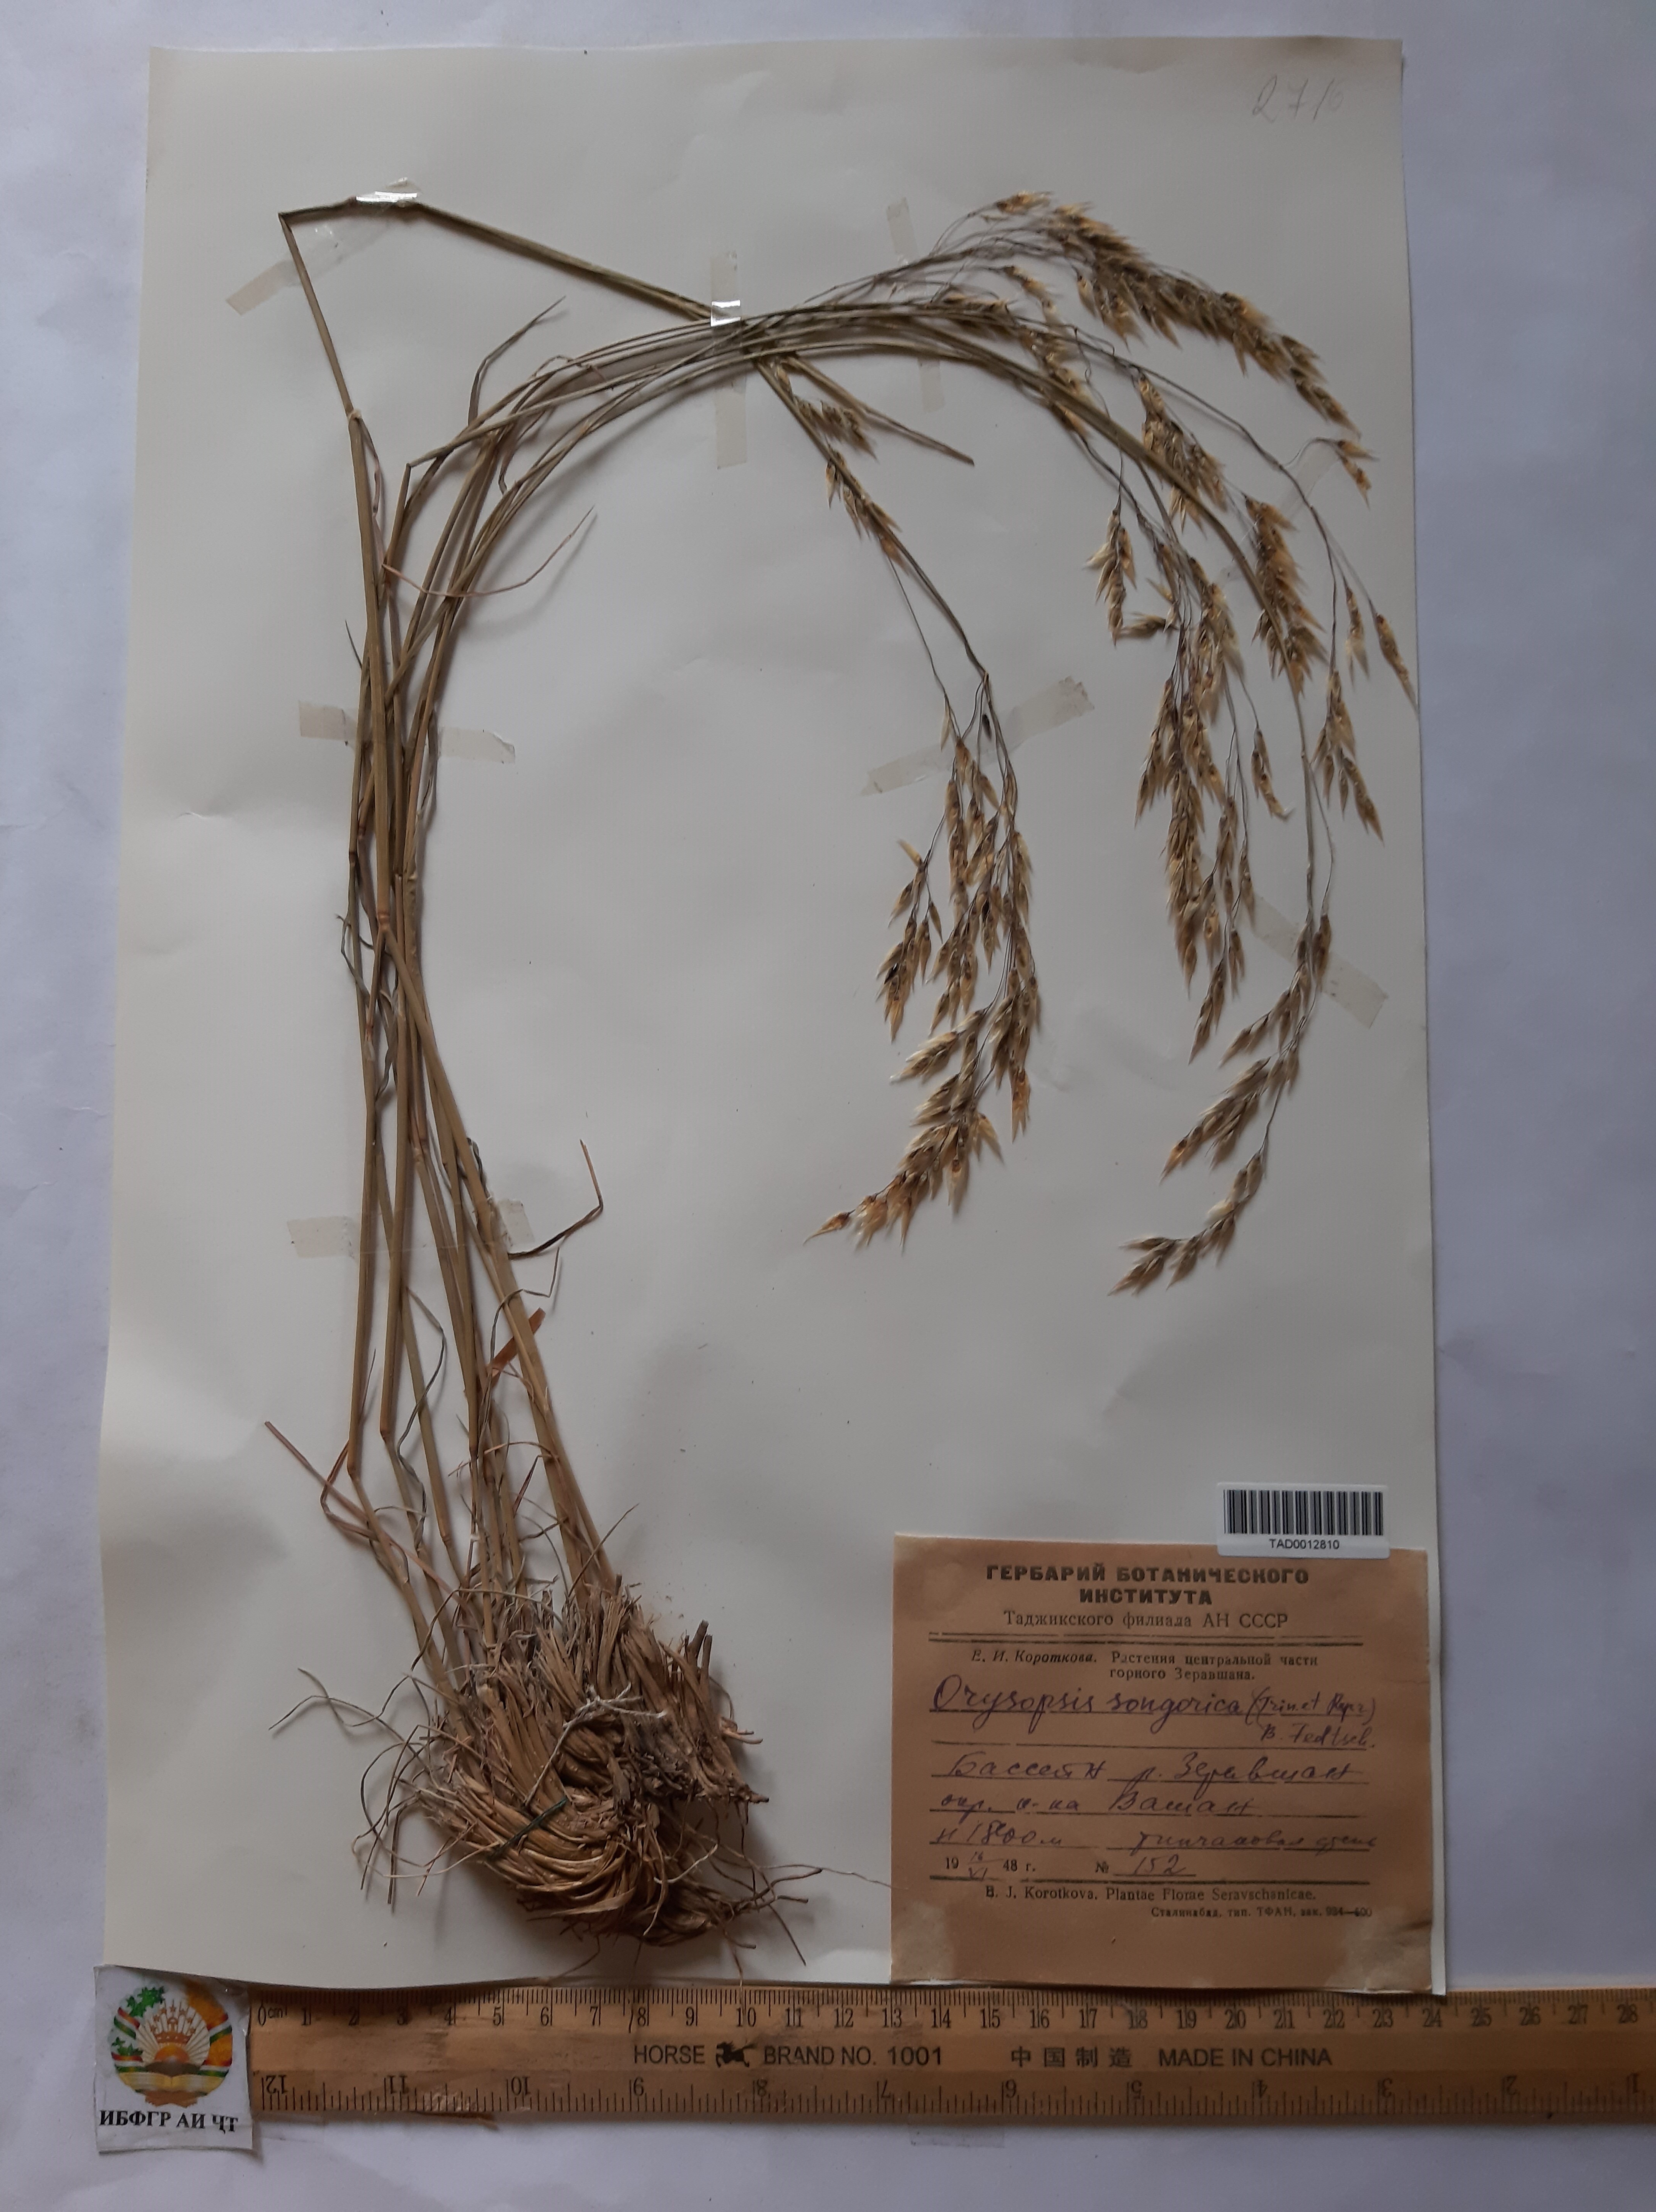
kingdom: Plantae
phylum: Tracheophyta
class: Liliopsida
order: Poales
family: Poaceae
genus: Piptatherum
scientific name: Piptatherum songaricum
